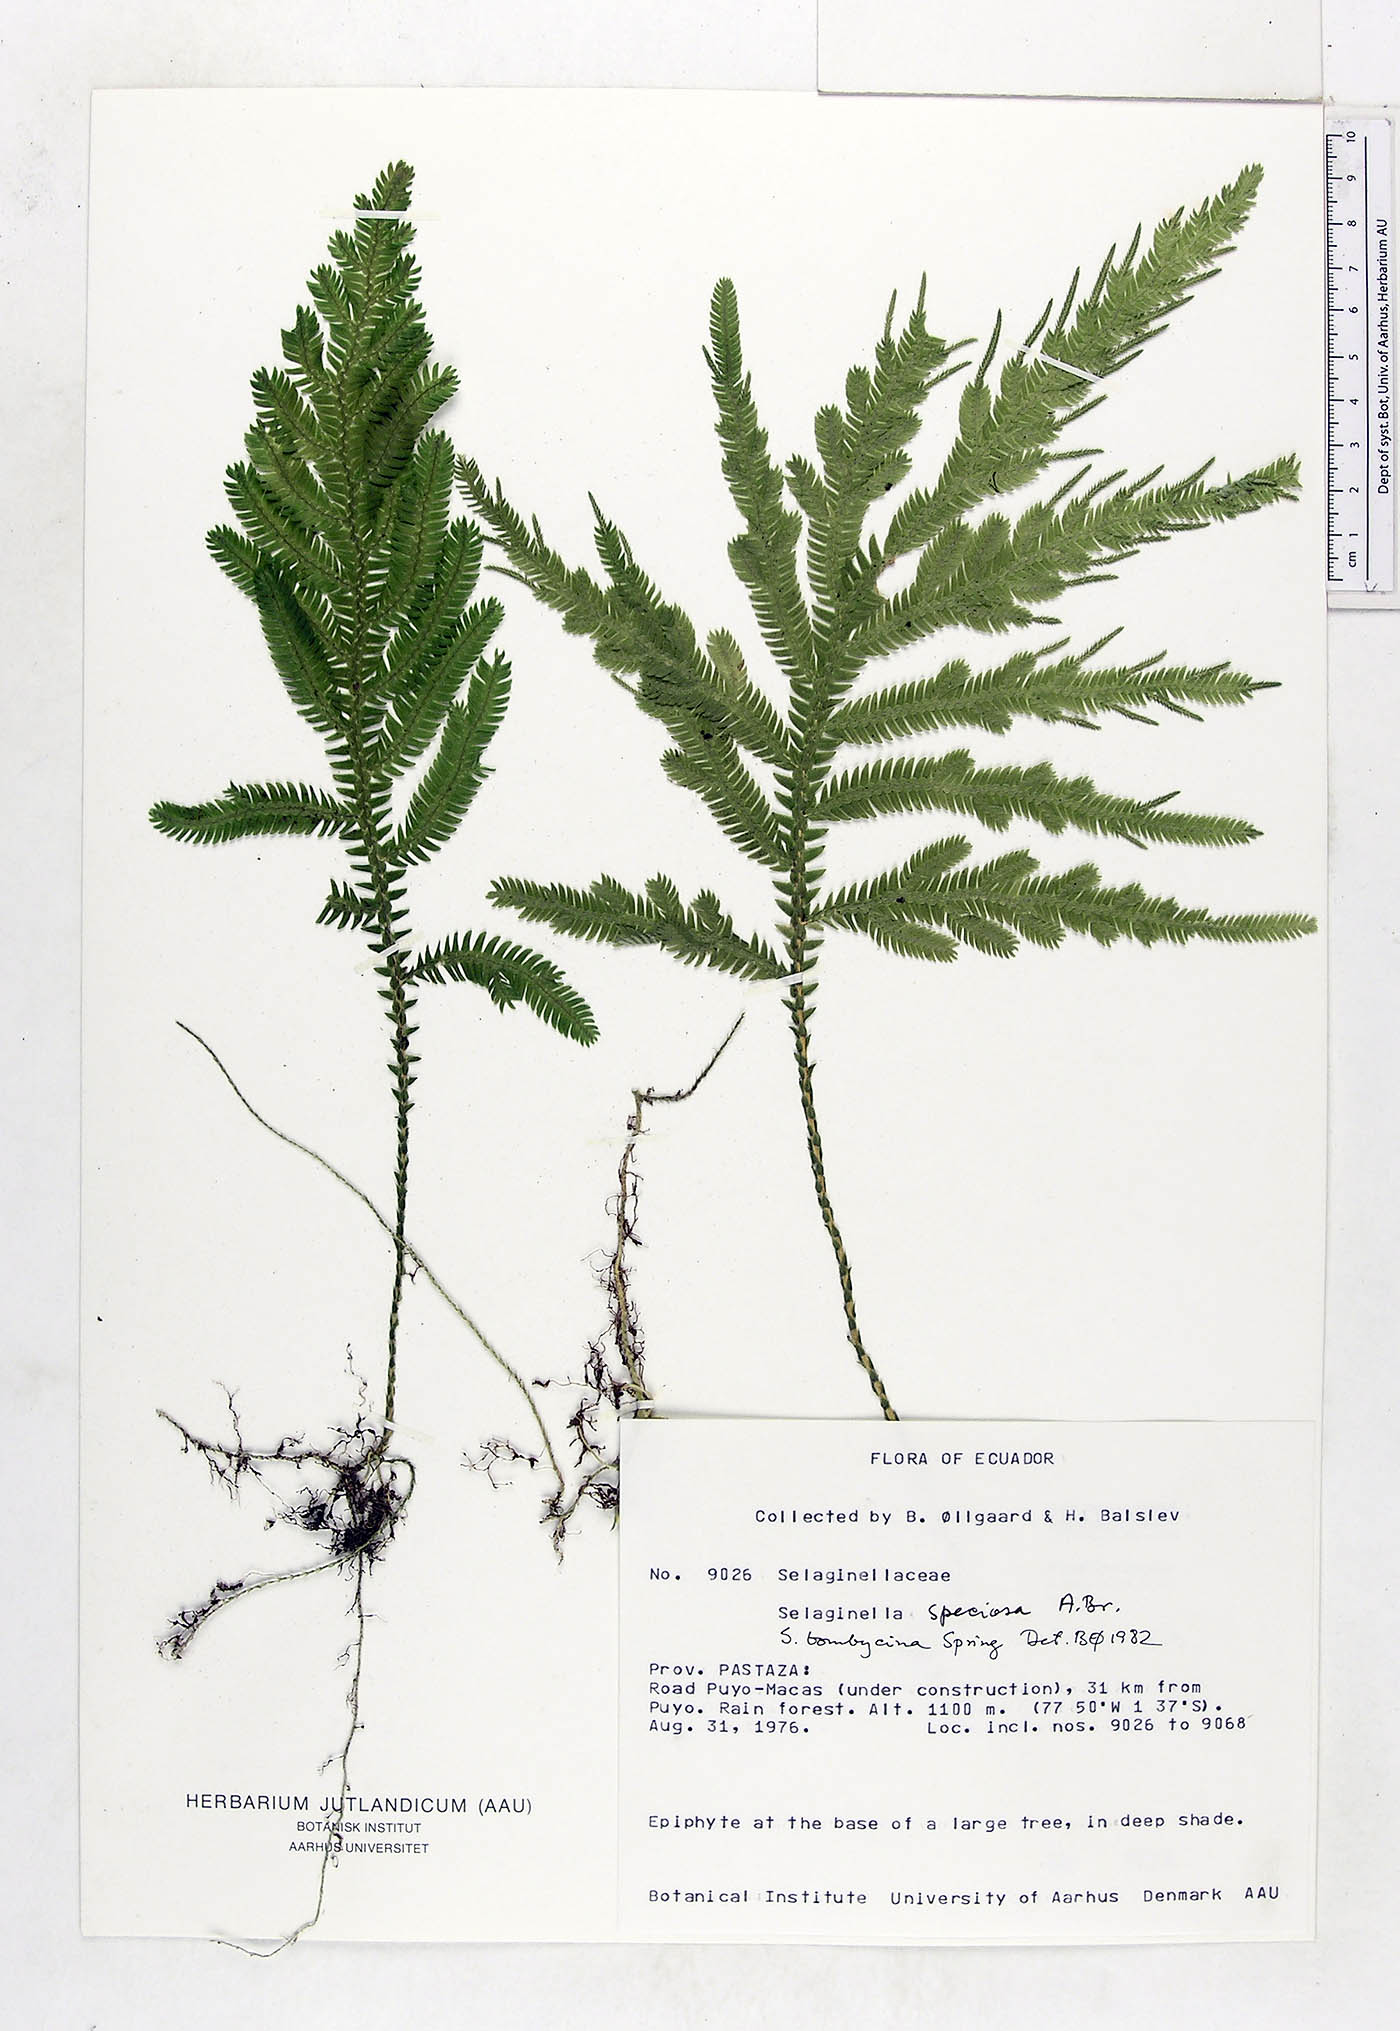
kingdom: Plantae
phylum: Tracheophyta
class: Lycopodiopsida
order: Selaginellales
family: Selaginellaceae
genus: Selaginella
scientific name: Selaginella bombycina
